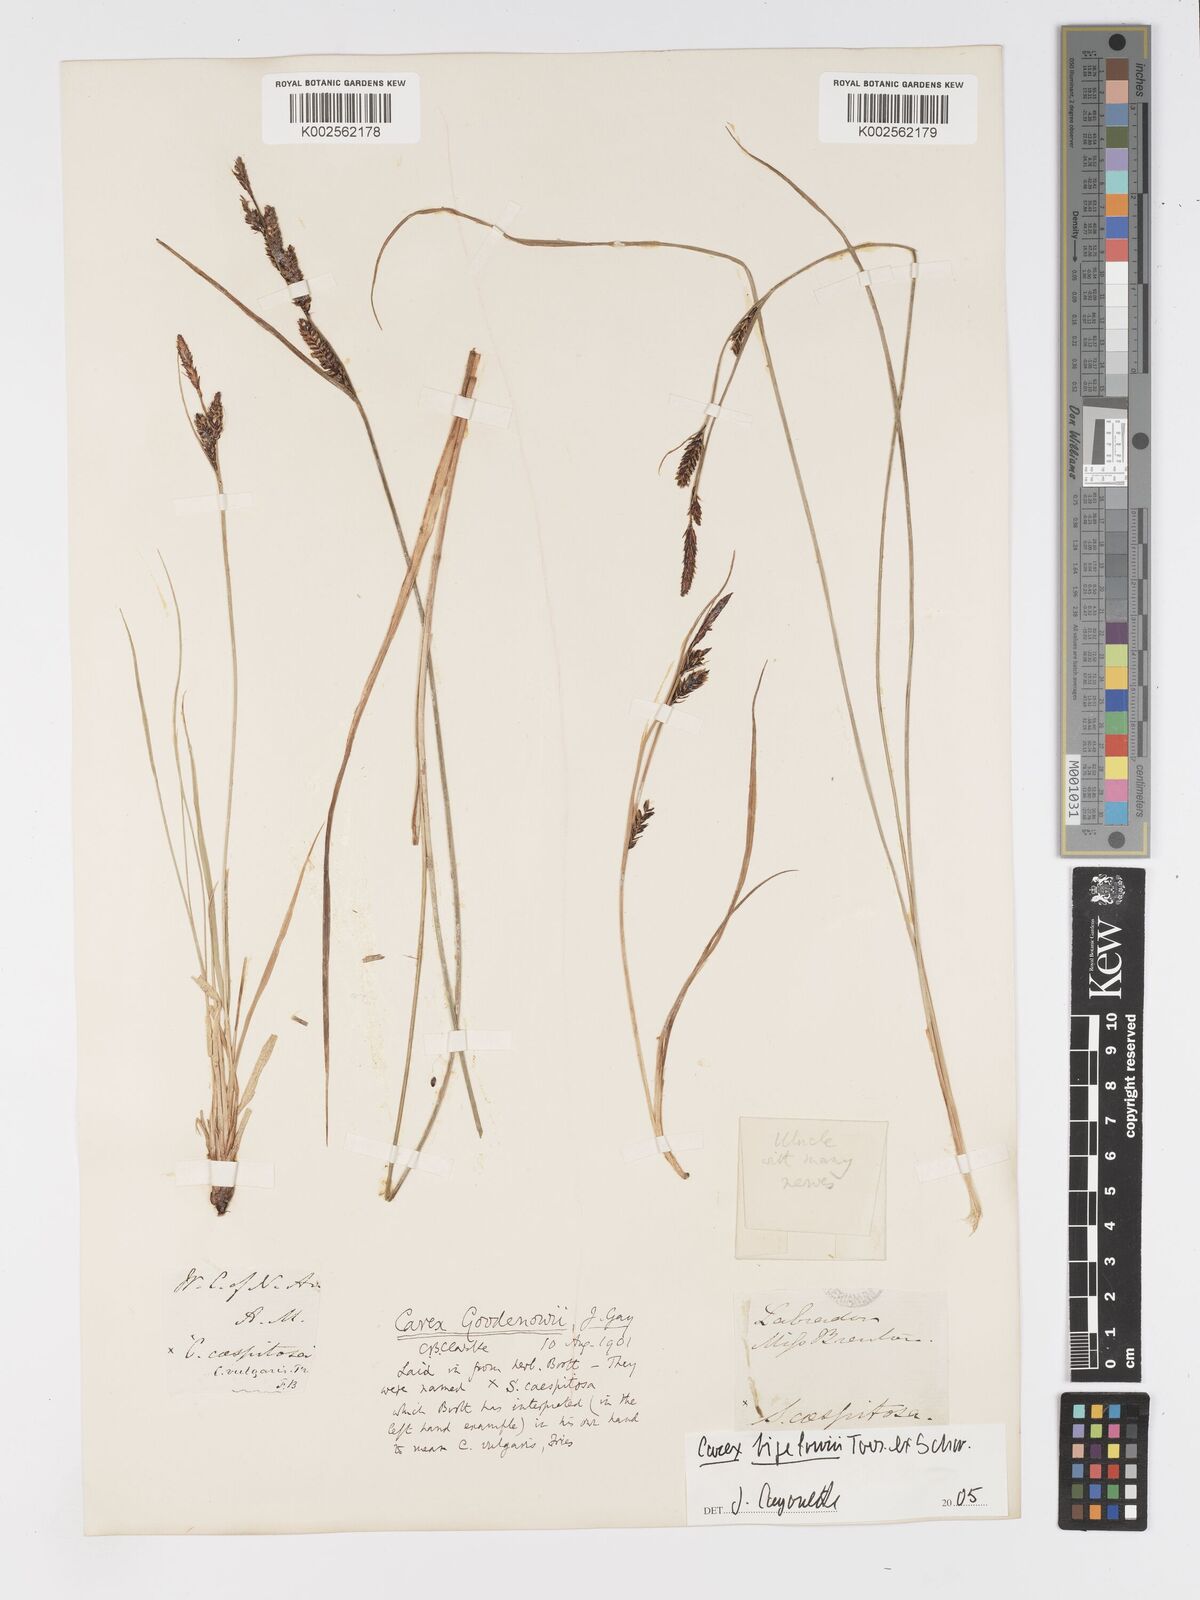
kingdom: Plantae
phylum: Tracheophyta
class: Liliopsida
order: Poales
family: Cyperaceae
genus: Carex
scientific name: Carex nigra
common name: Common sedge
